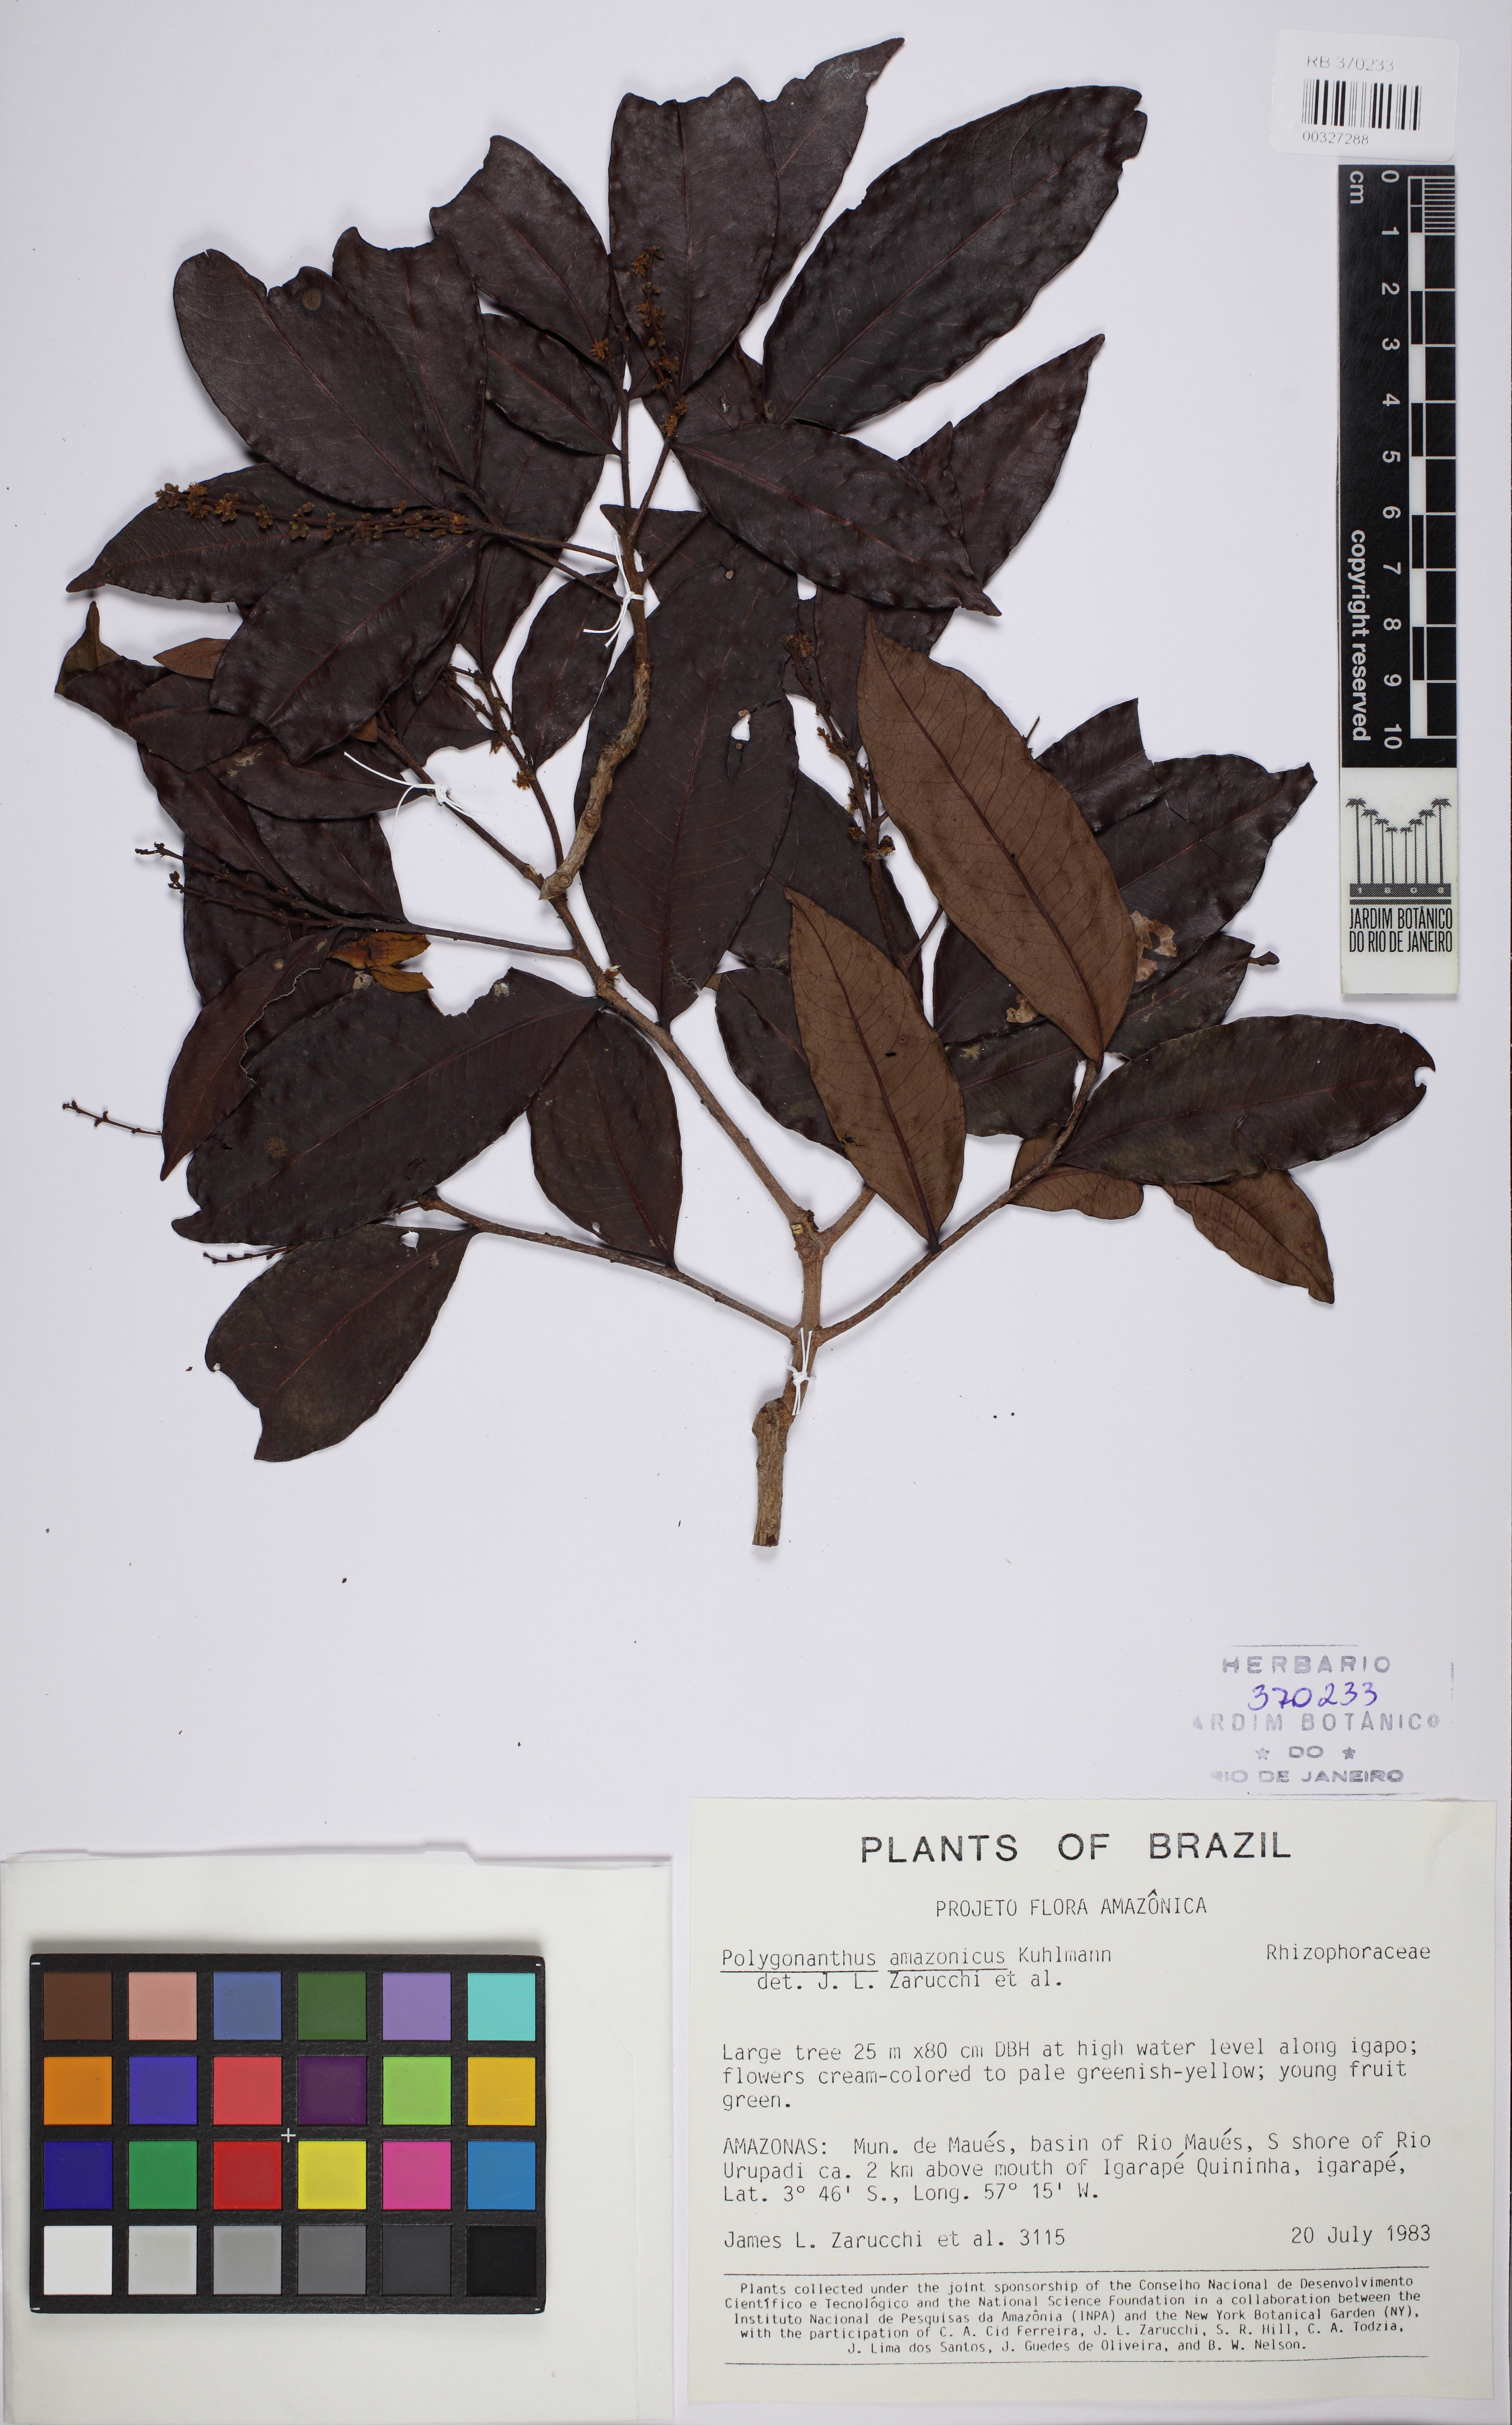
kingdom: Plantae
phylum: Tracheophyta
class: Magnoliopsida
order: Cucurbitales
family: Anisophylleaceae
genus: Polygonanthus
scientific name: Polygonanthus amazonicus
